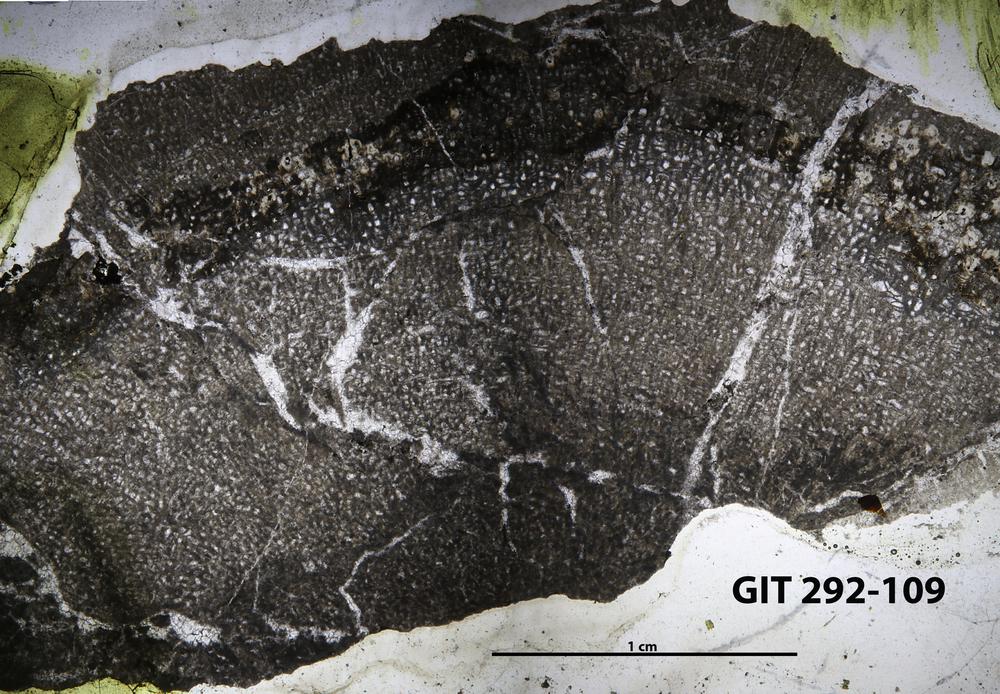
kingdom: Animalia
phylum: Porifera
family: Pseudolabechiidae
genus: Vikingia
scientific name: Vikingia
